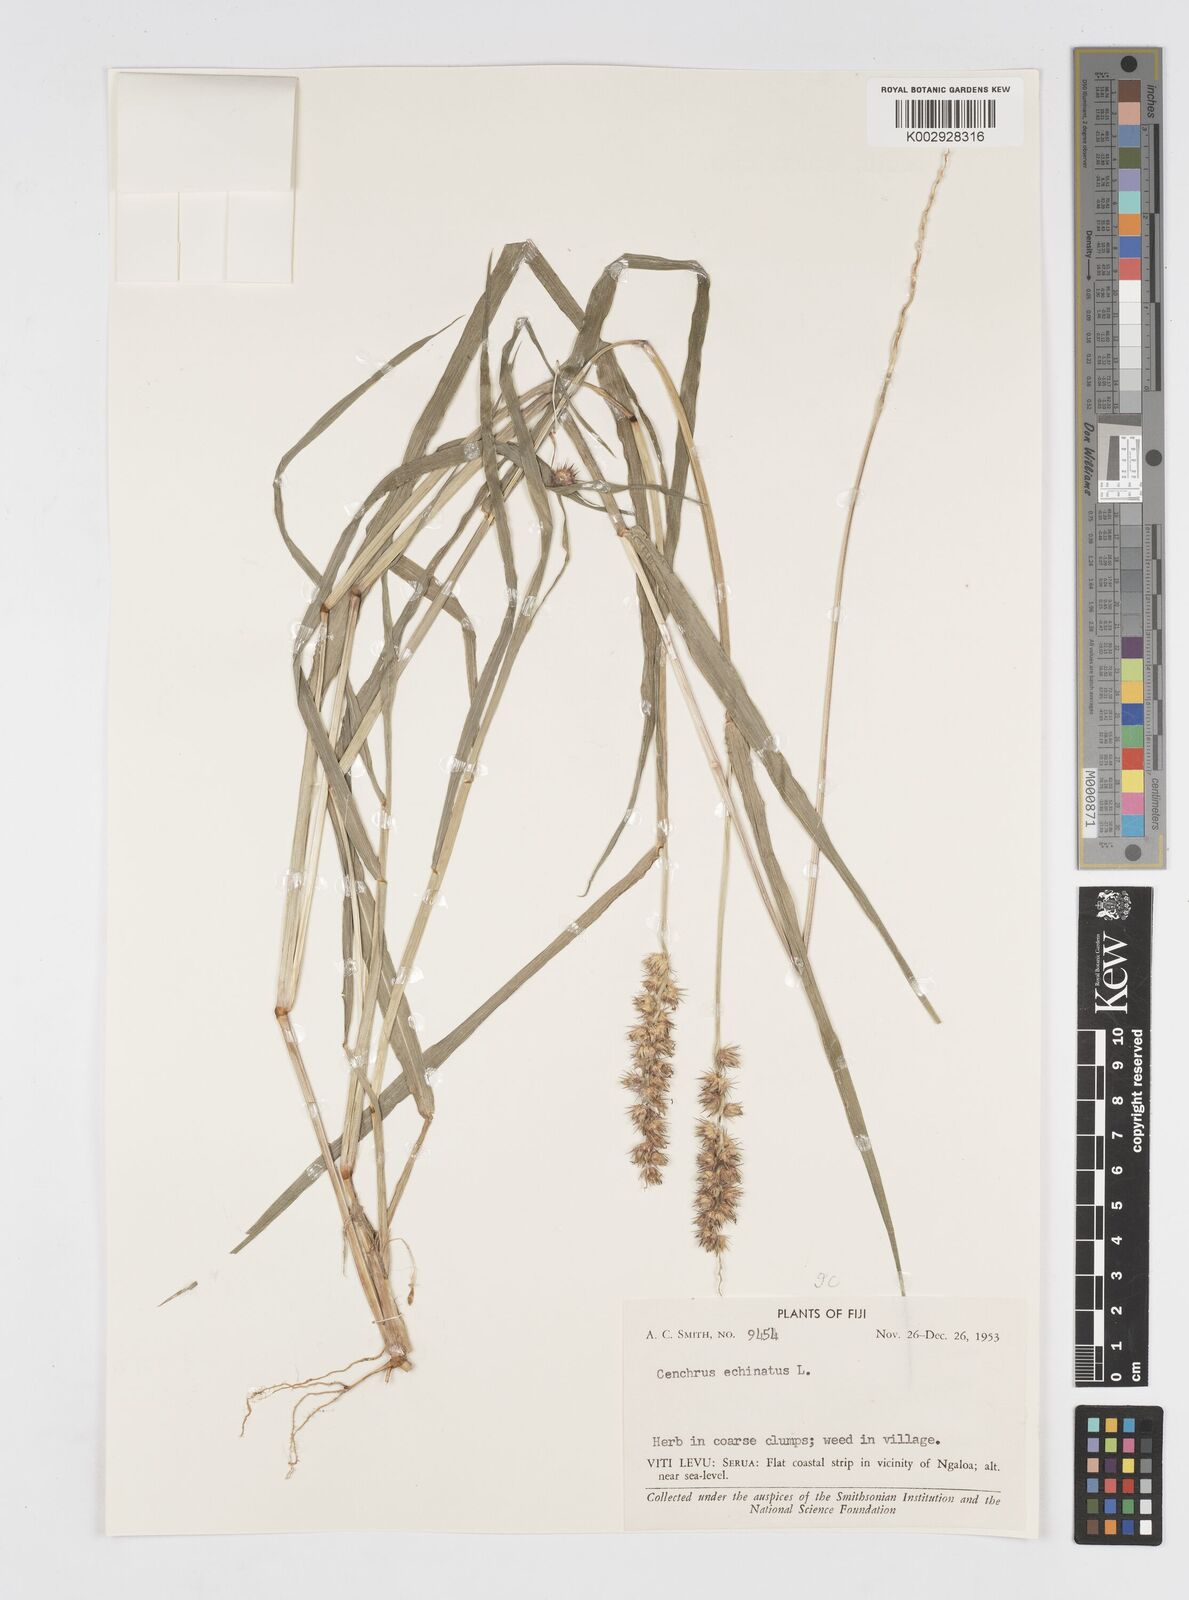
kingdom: Plantae
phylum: Tracheophyta
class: Liliopsida
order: Poales
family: Poaceae
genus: Cenchrus
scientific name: Cenchrus echinatus
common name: Southern sandbur
